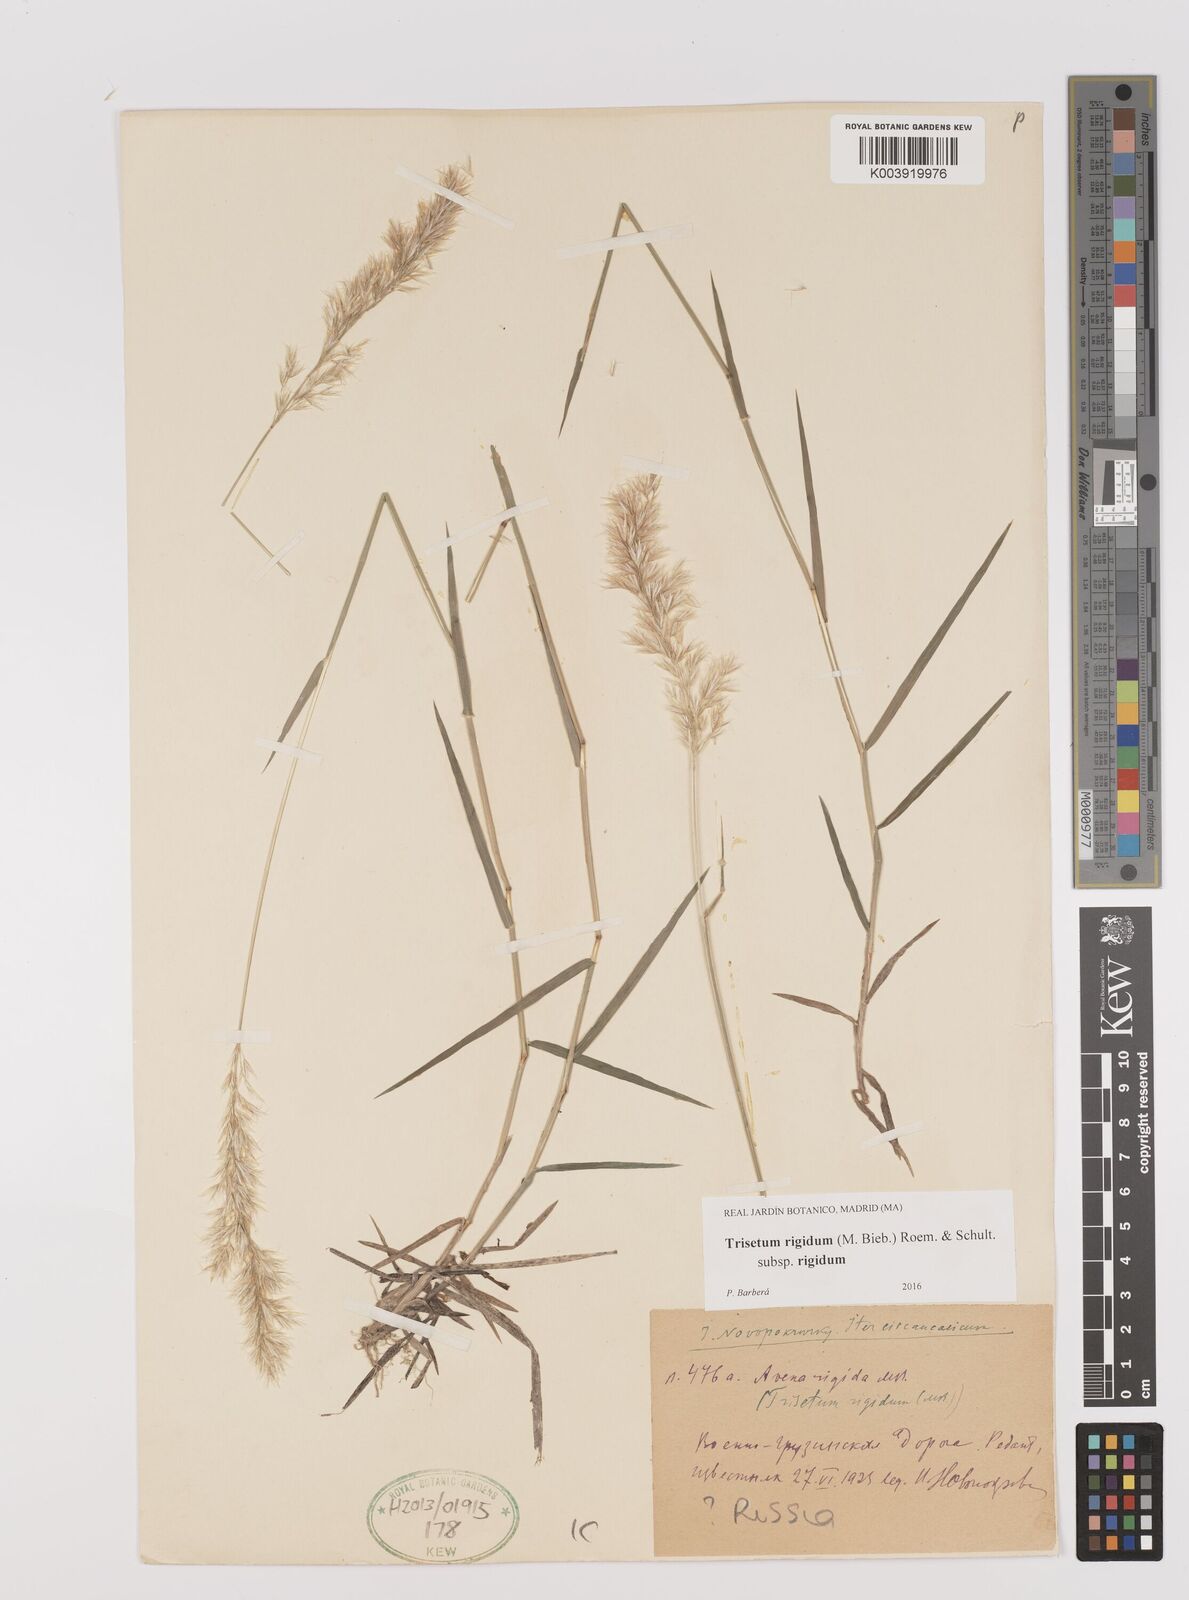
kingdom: Plantae
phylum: Tracheophyta
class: Liliopsida
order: Poales
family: Poaceae
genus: Trisetum
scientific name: Trisetum rigidum
